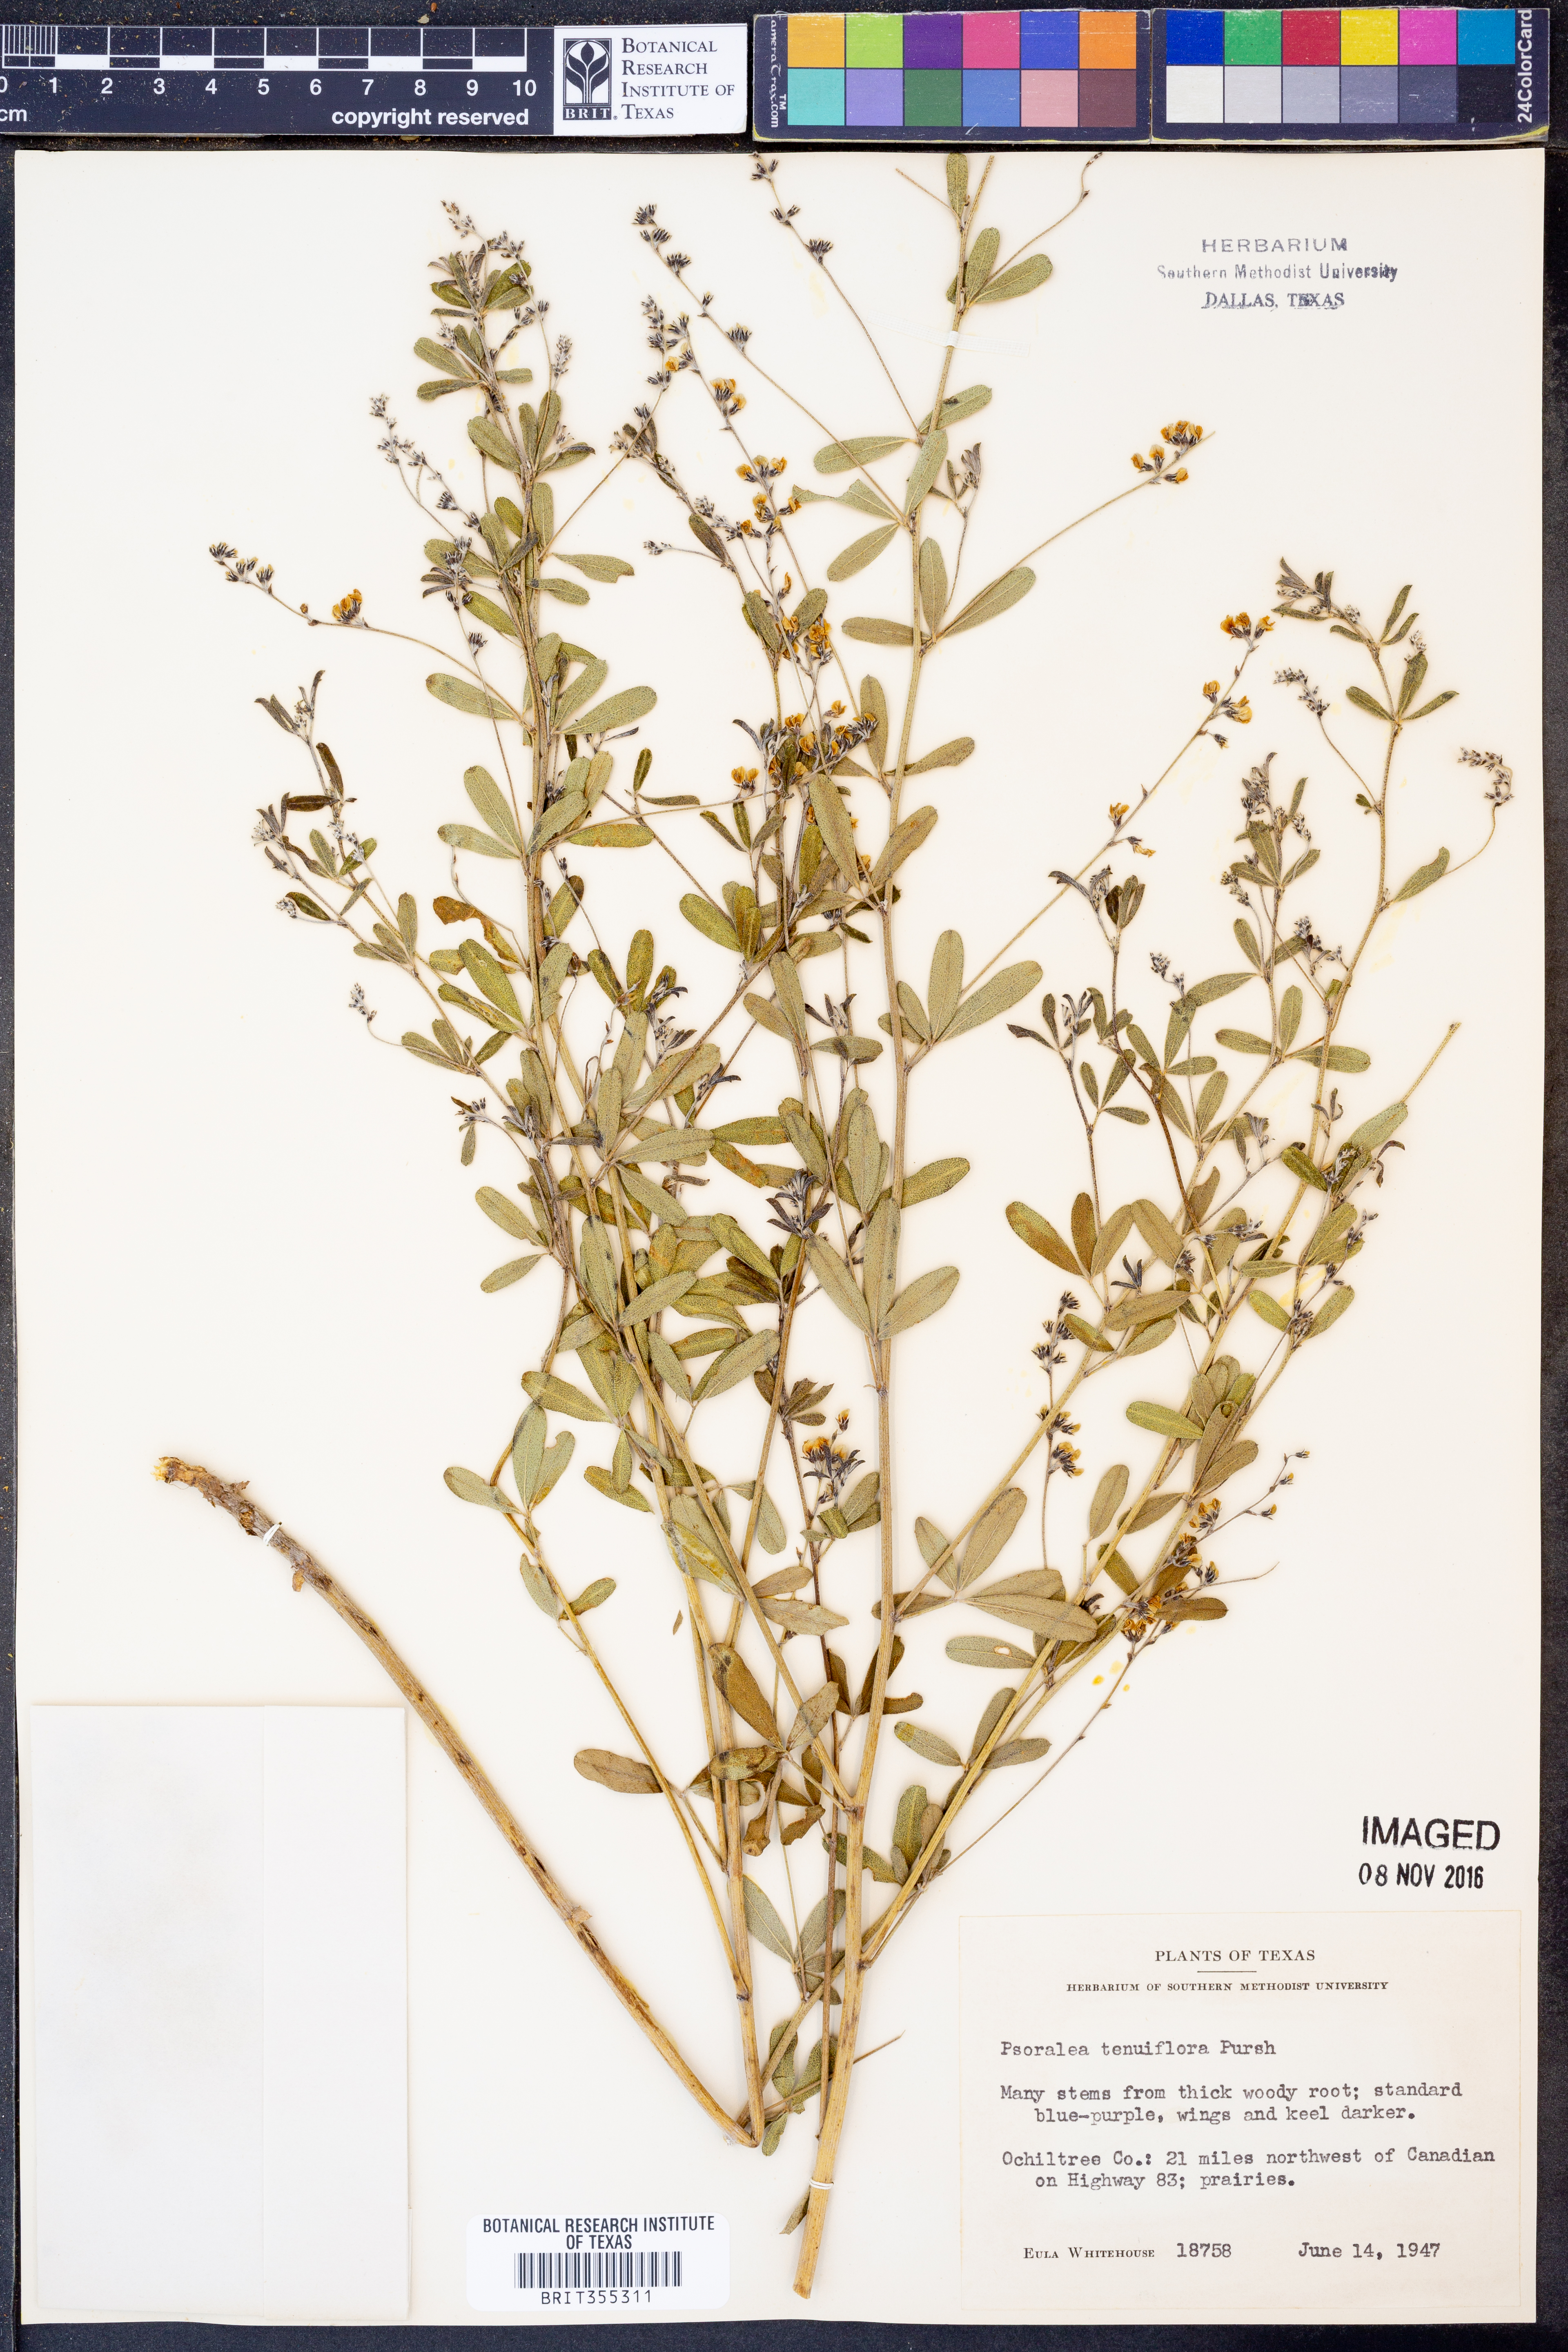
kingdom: Plantae
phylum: Tracheophyta
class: Magnoliopsida
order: Fabales
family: Fabaceae
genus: Pediomelum
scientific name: Pediomelum tenuiflorum
